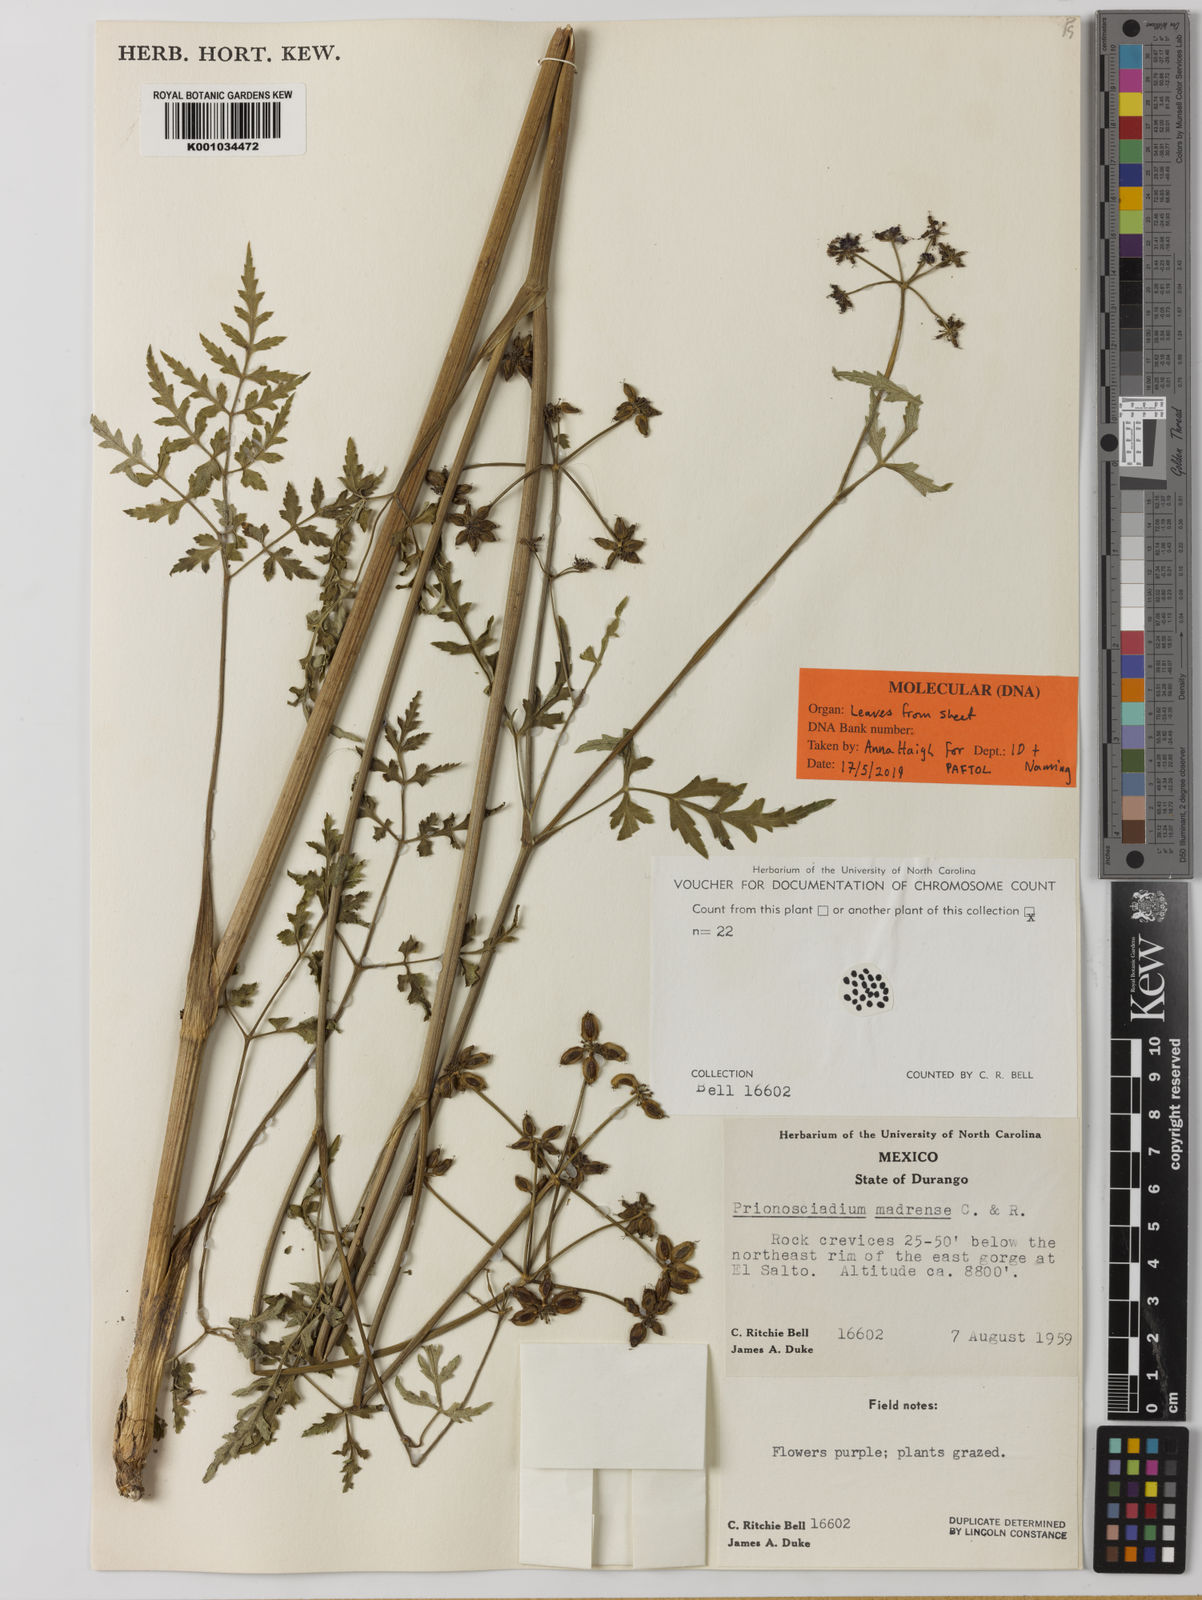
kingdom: Plantae
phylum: Tracheophyta
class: Magnoliopsida
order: Apiales
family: Apiaceae
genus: Prionosciadium
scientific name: Prionosciadium madrense
